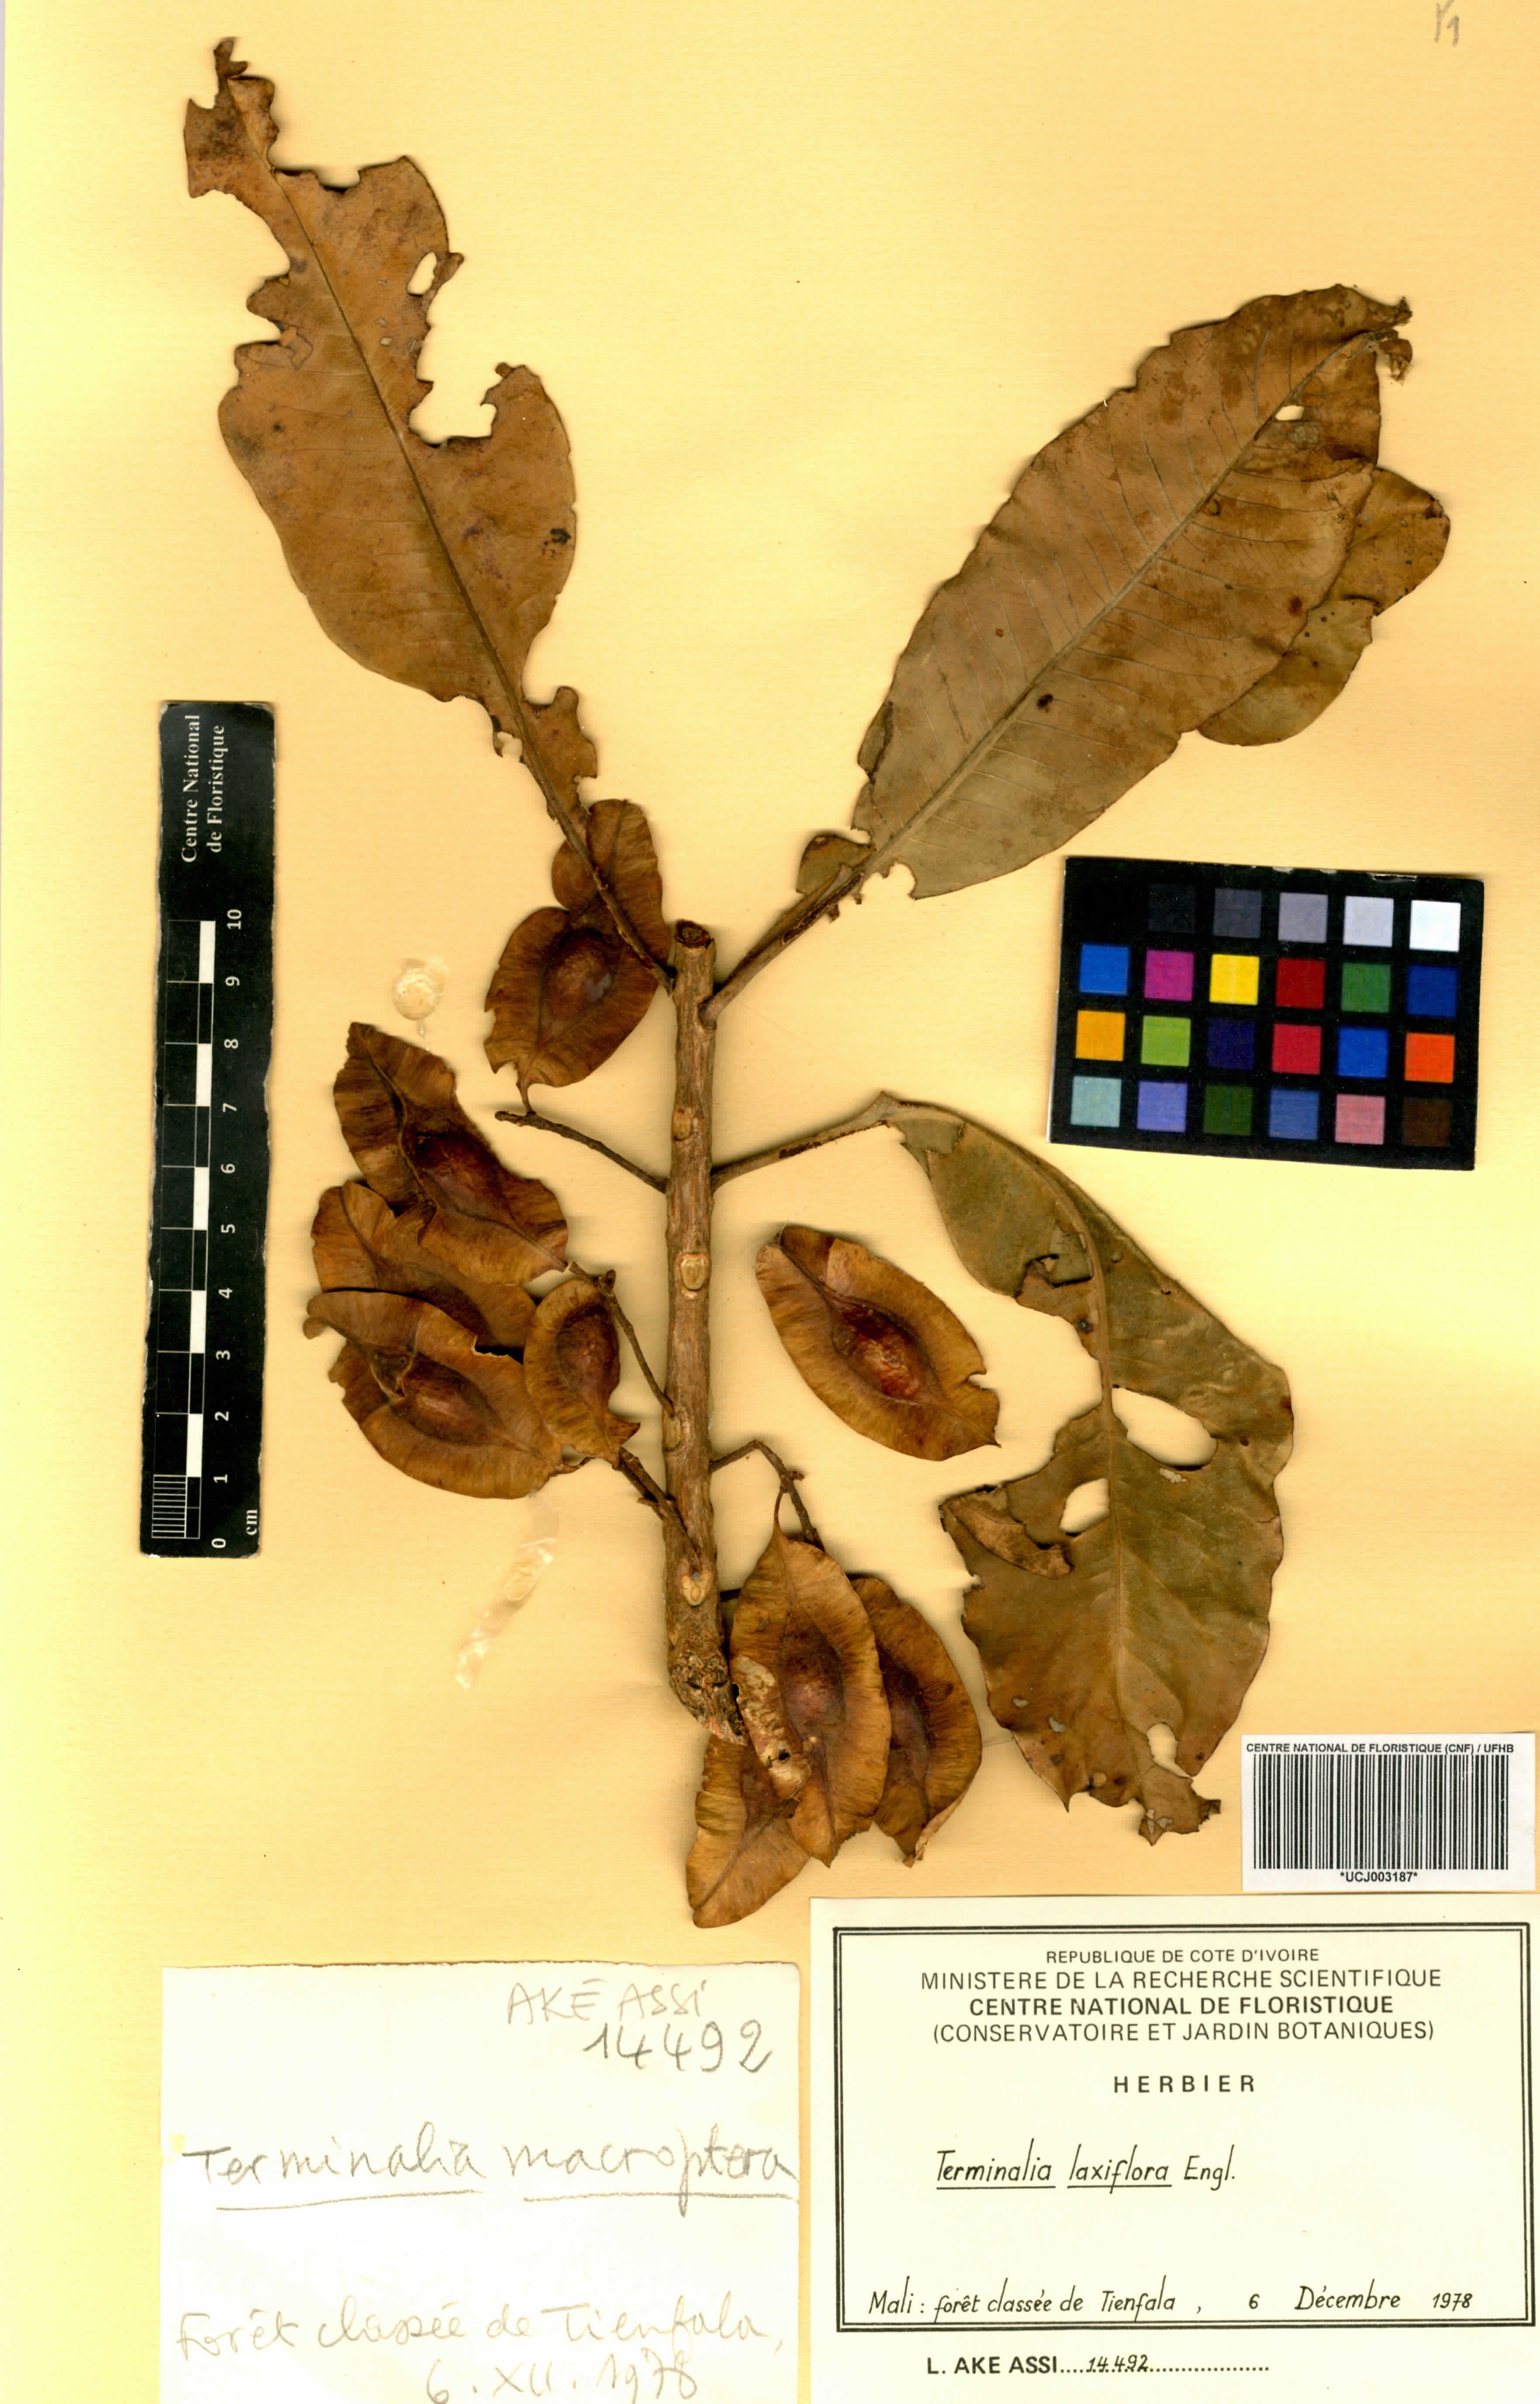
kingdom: Plantae
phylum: Tracheophyta
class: Magnoliopsida
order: Myrtales
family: Combretaceae
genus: Terminalia
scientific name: Terminalia laxiflora
